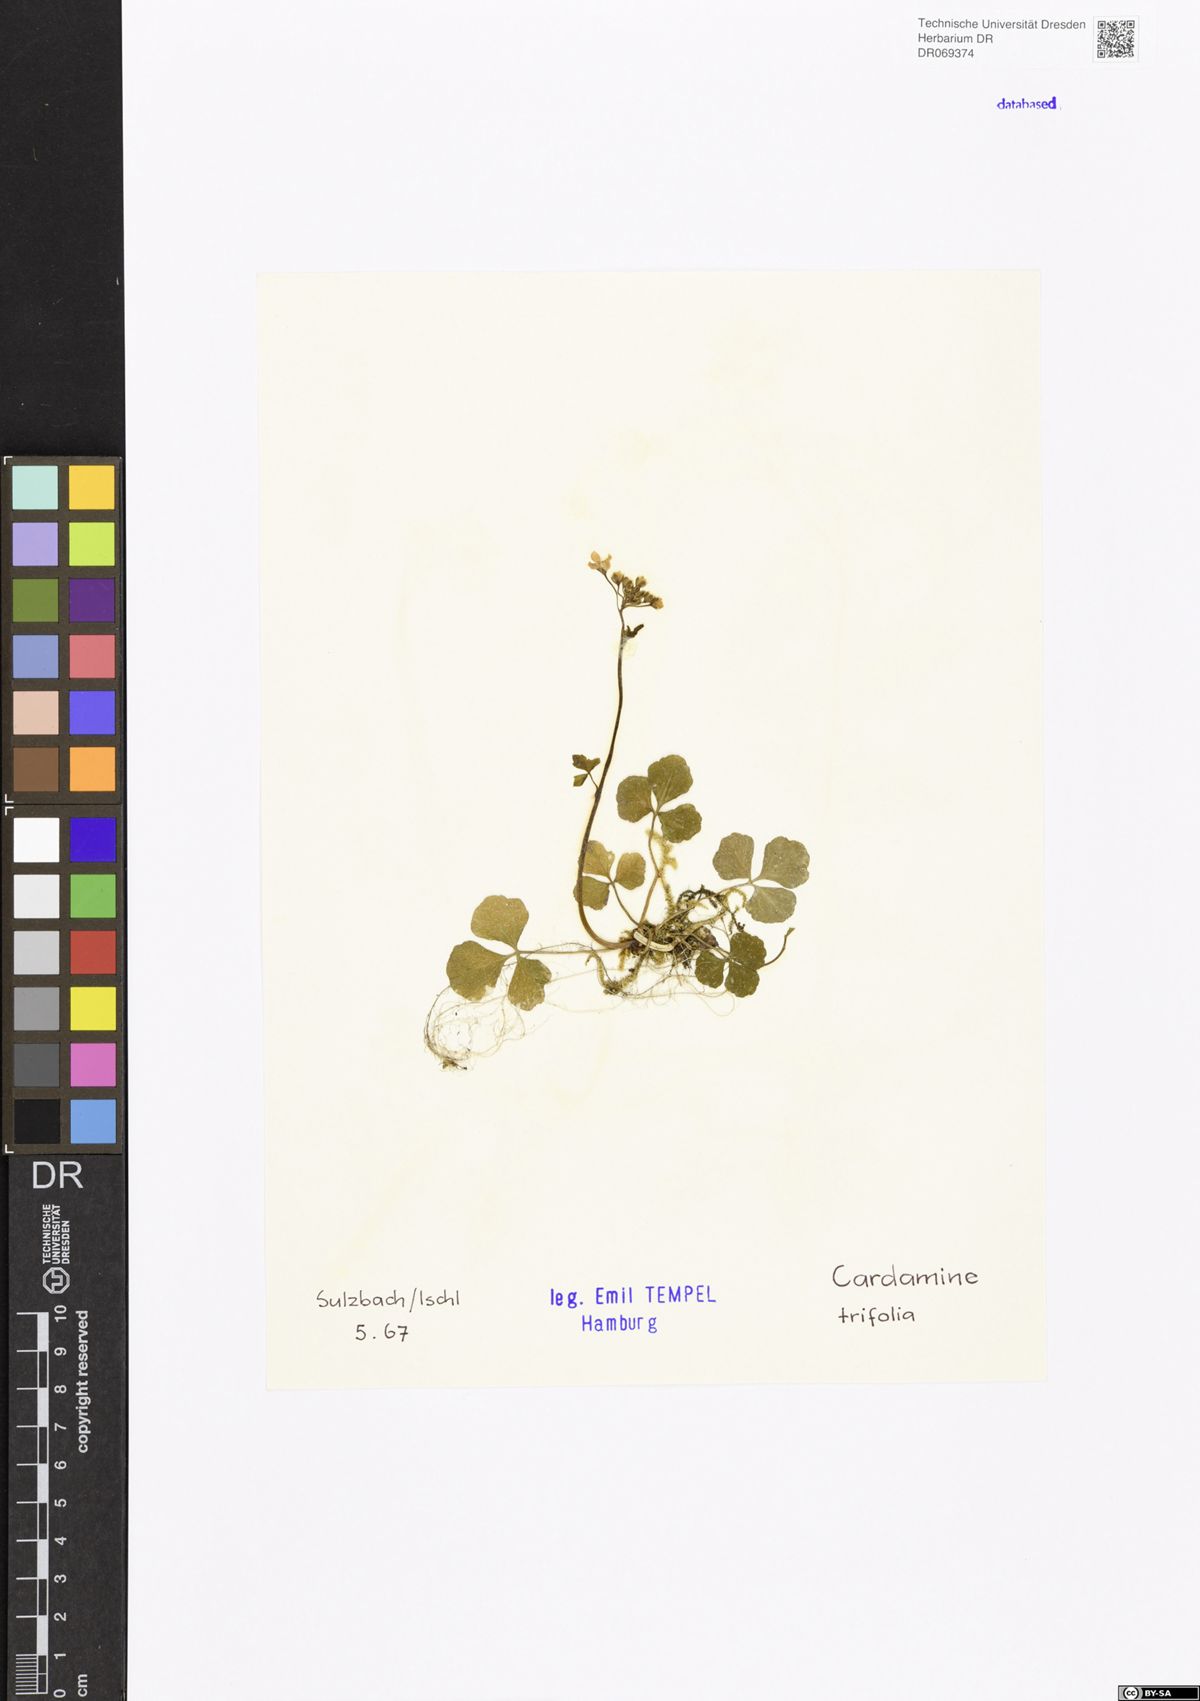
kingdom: Plantae
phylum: Tracheophyta
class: Magnoliopsida
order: Brassicales
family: Brassicaceae
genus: Cardamine
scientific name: Cardamine trifolia
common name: Trefoil cress
